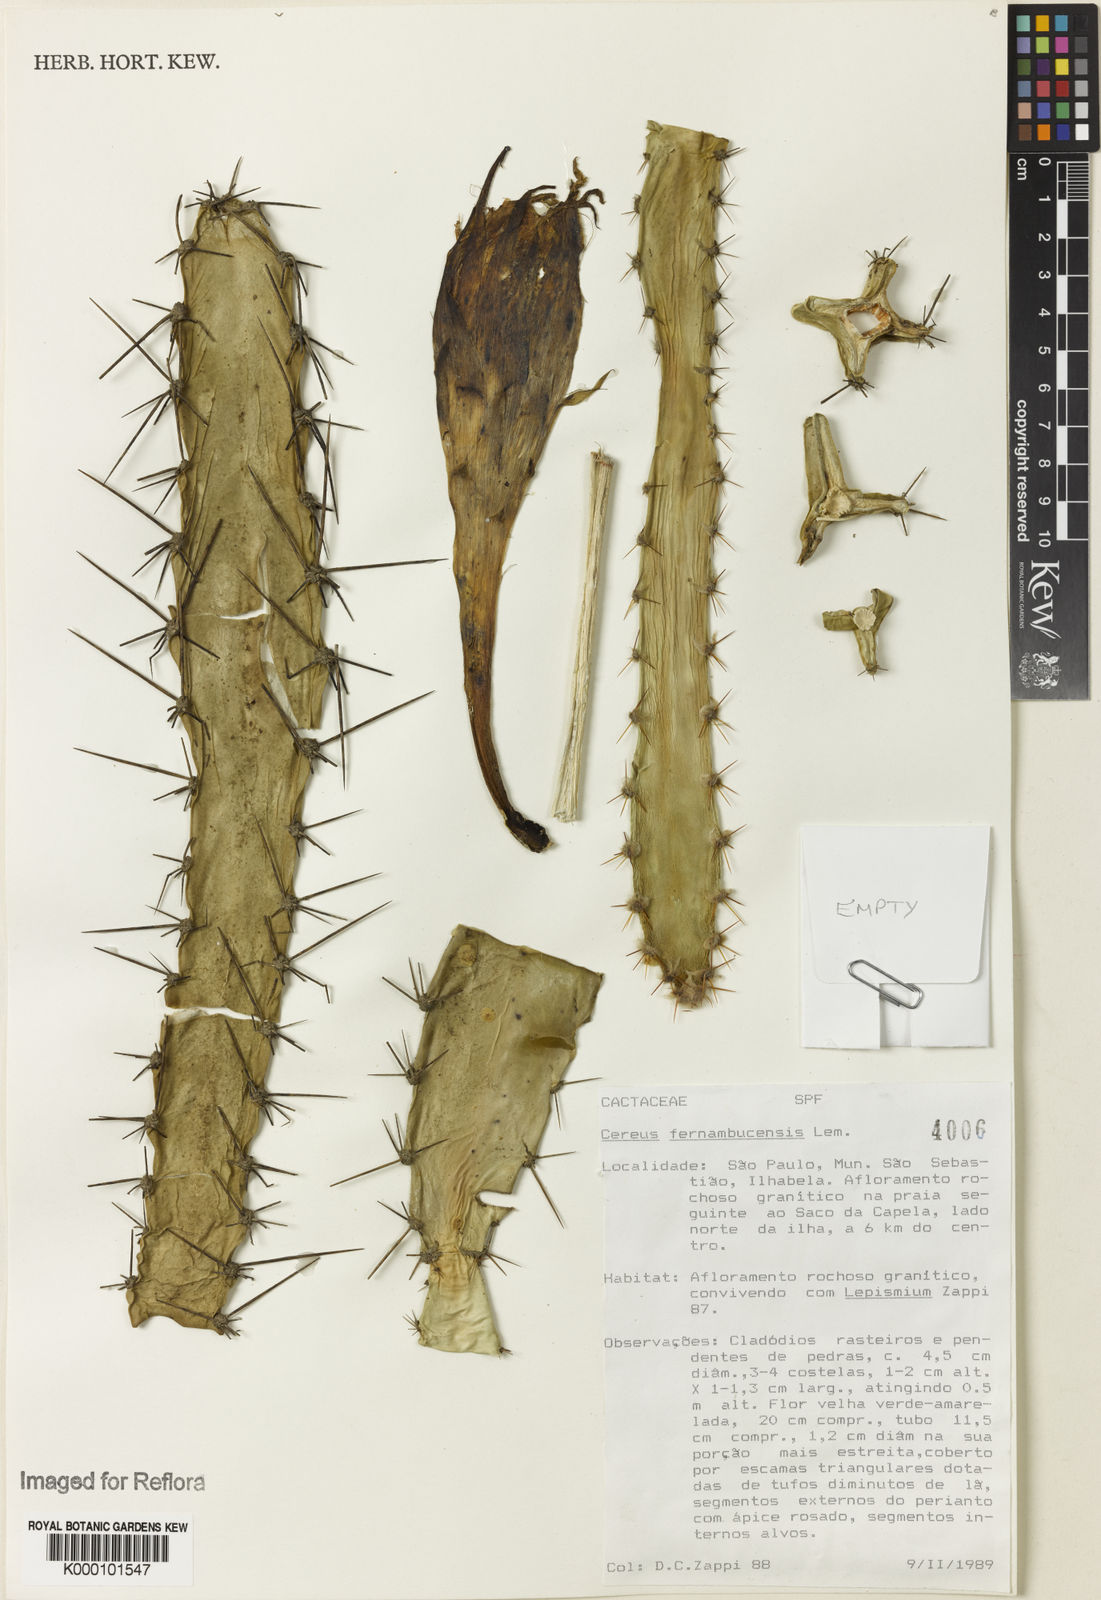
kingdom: Plantae
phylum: Tracheophyta
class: Magnoliopsida
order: Caryophyllales
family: Cactaceae
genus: Cereus
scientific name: Cereus
